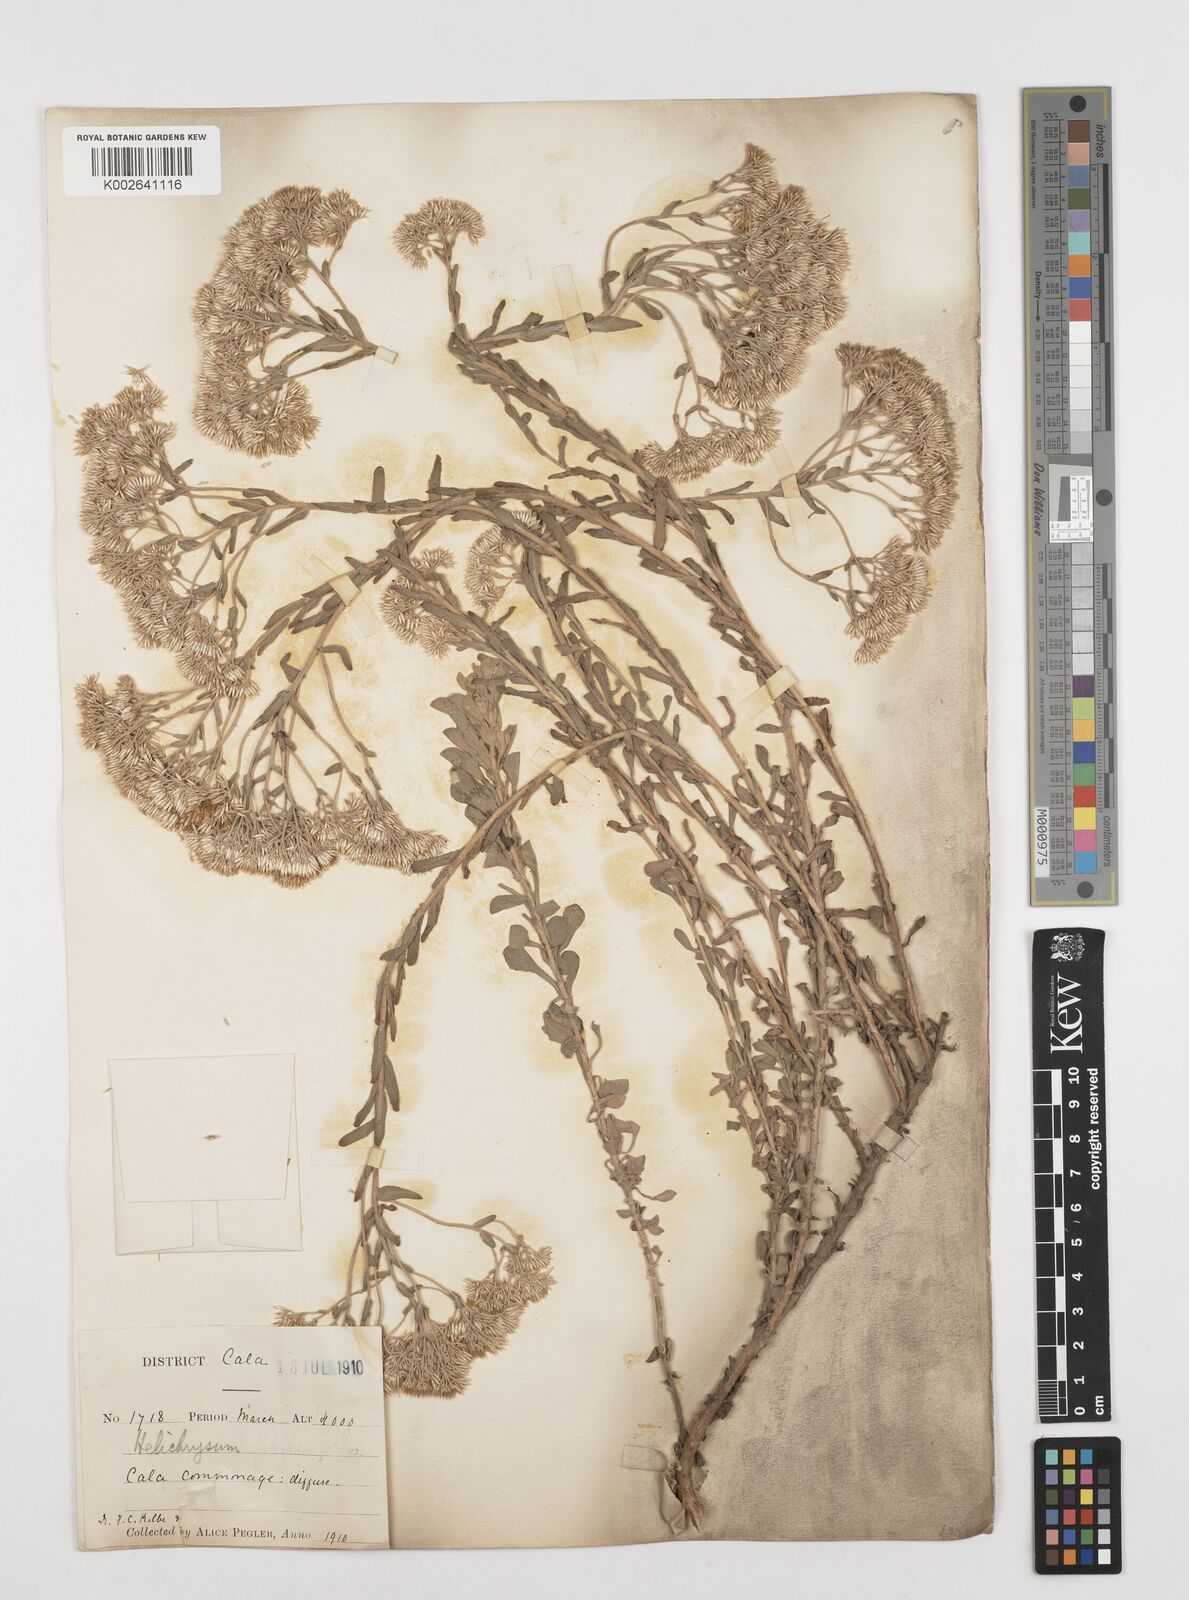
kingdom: Plantae
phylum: Tracheophyta
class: Magnoliopsida
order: Asterales
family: Asteraceae
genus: Helichrysum
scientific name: Helichrysum callicomum
